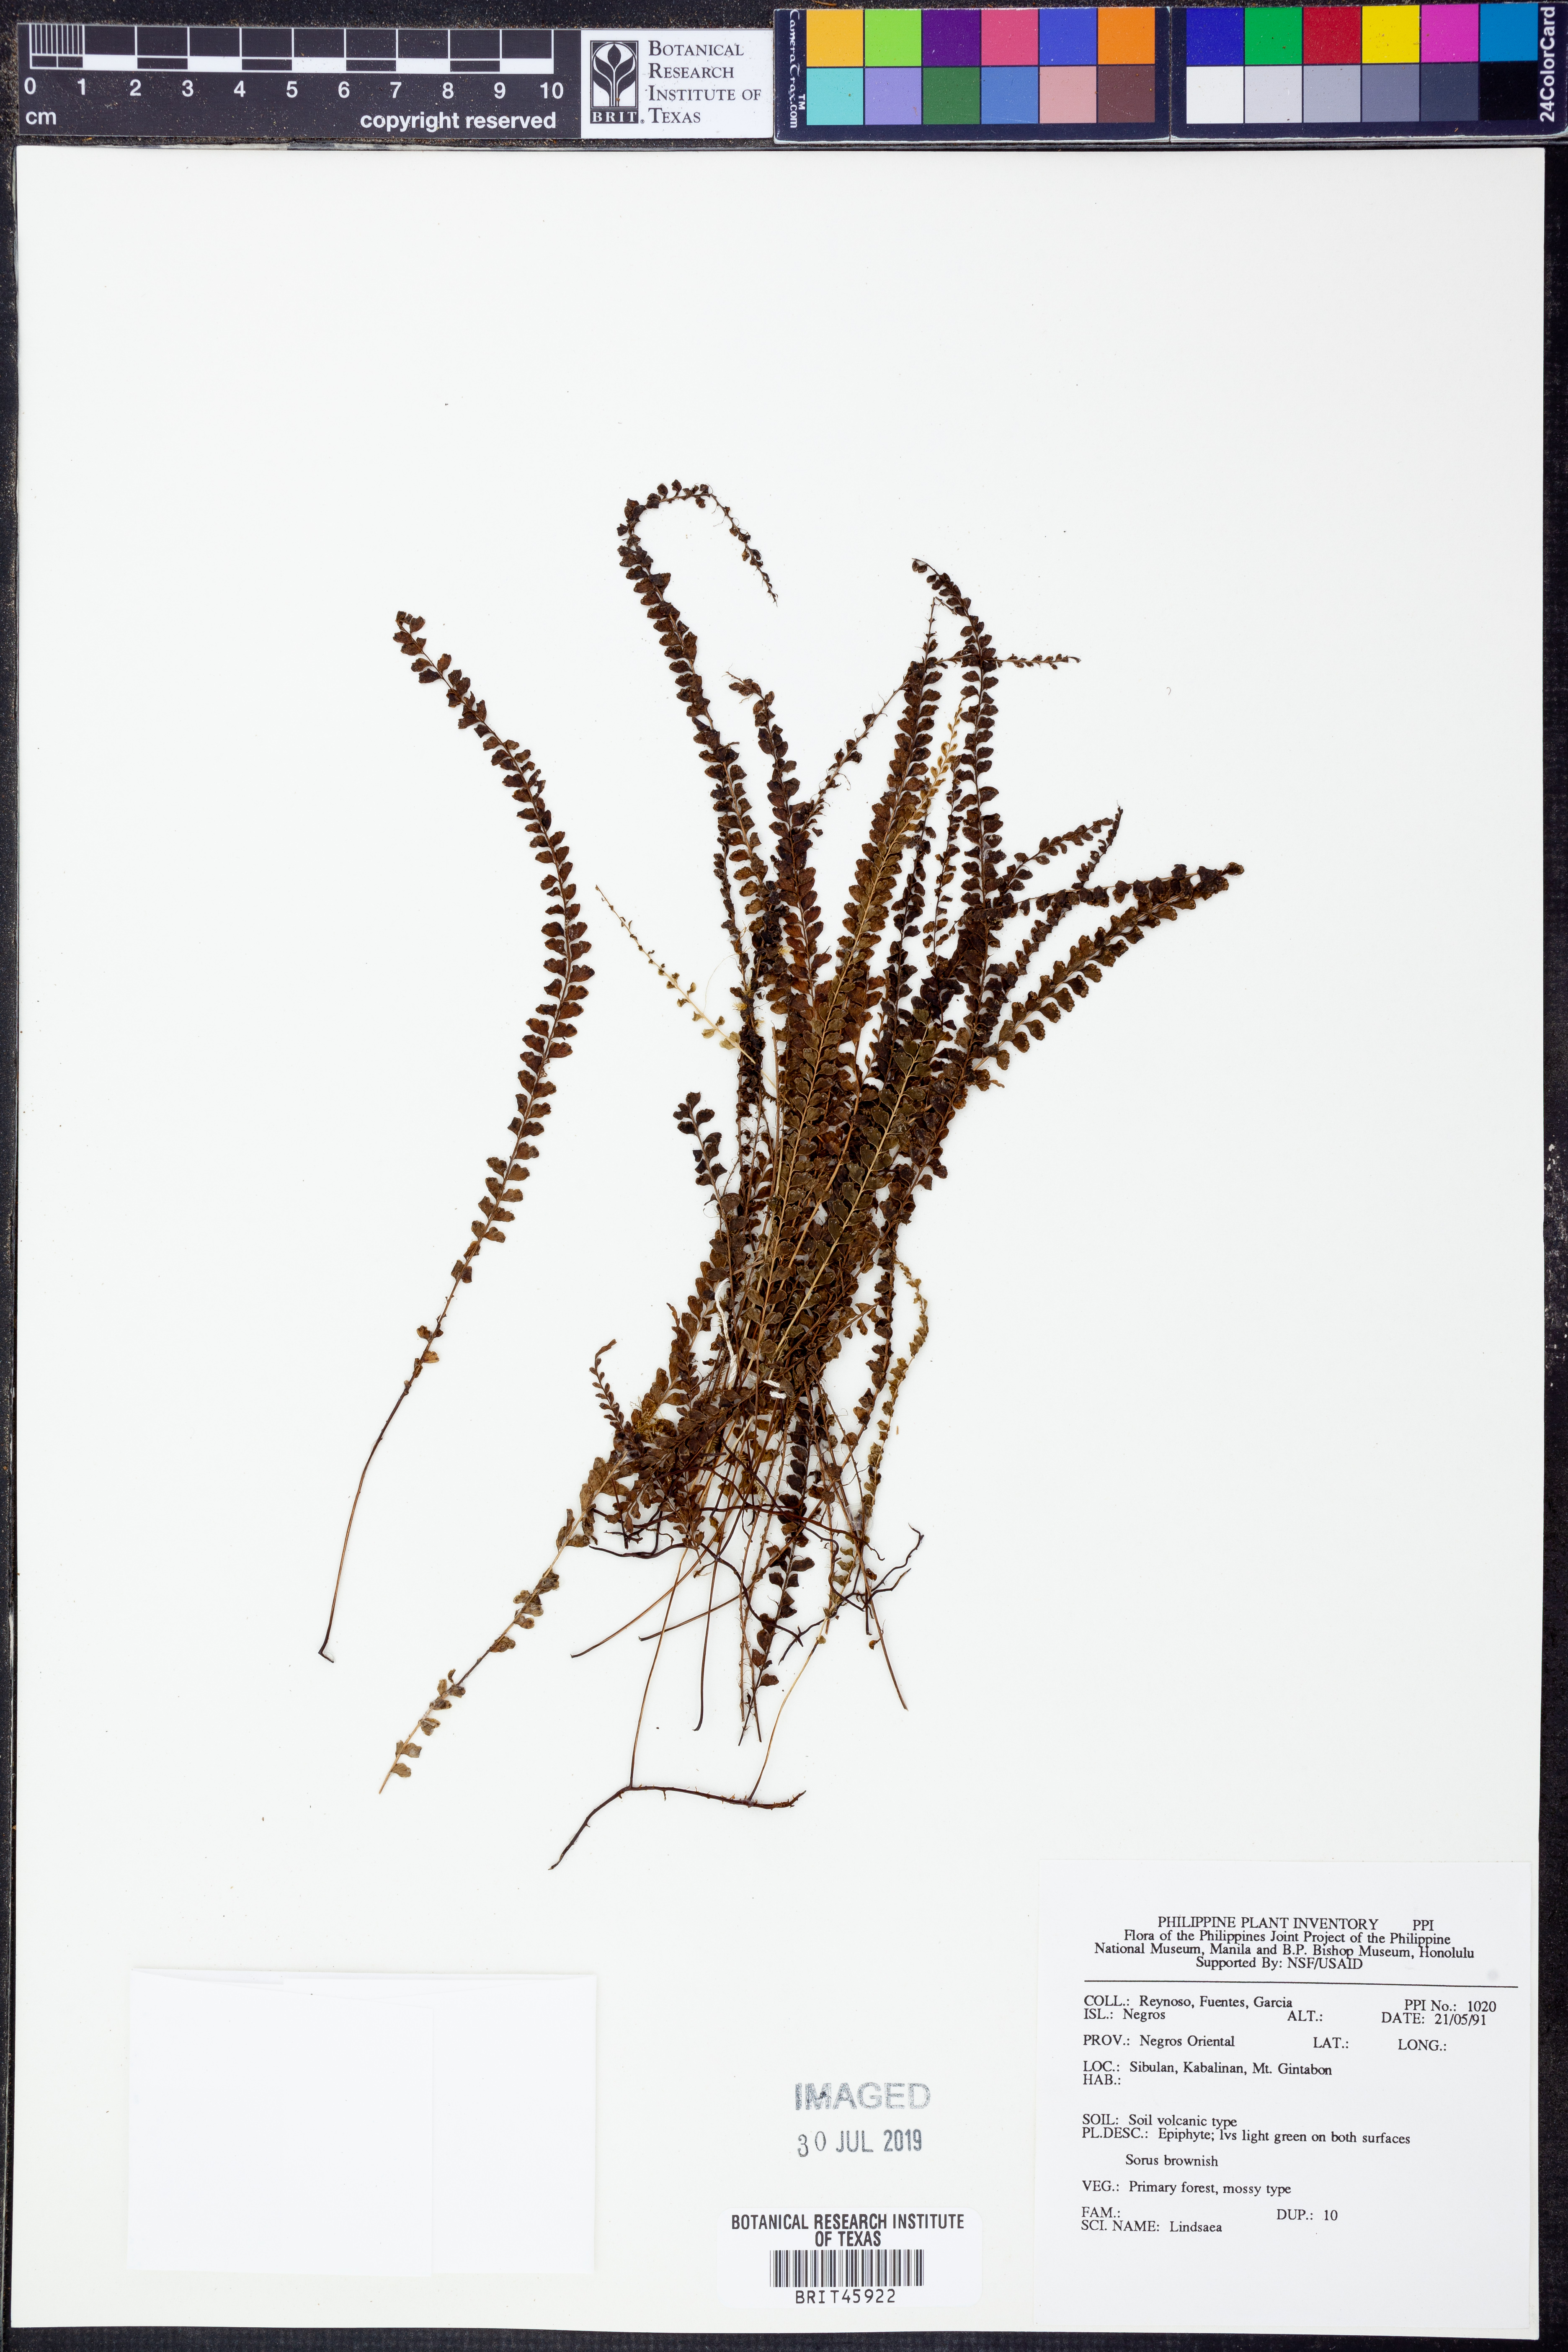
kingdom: Plantae
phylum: Tracheophyta
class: Polypodiopsida
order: Polypodiales
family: Lindsaeaceae
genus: Lindsaea
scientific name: Lindsaea
